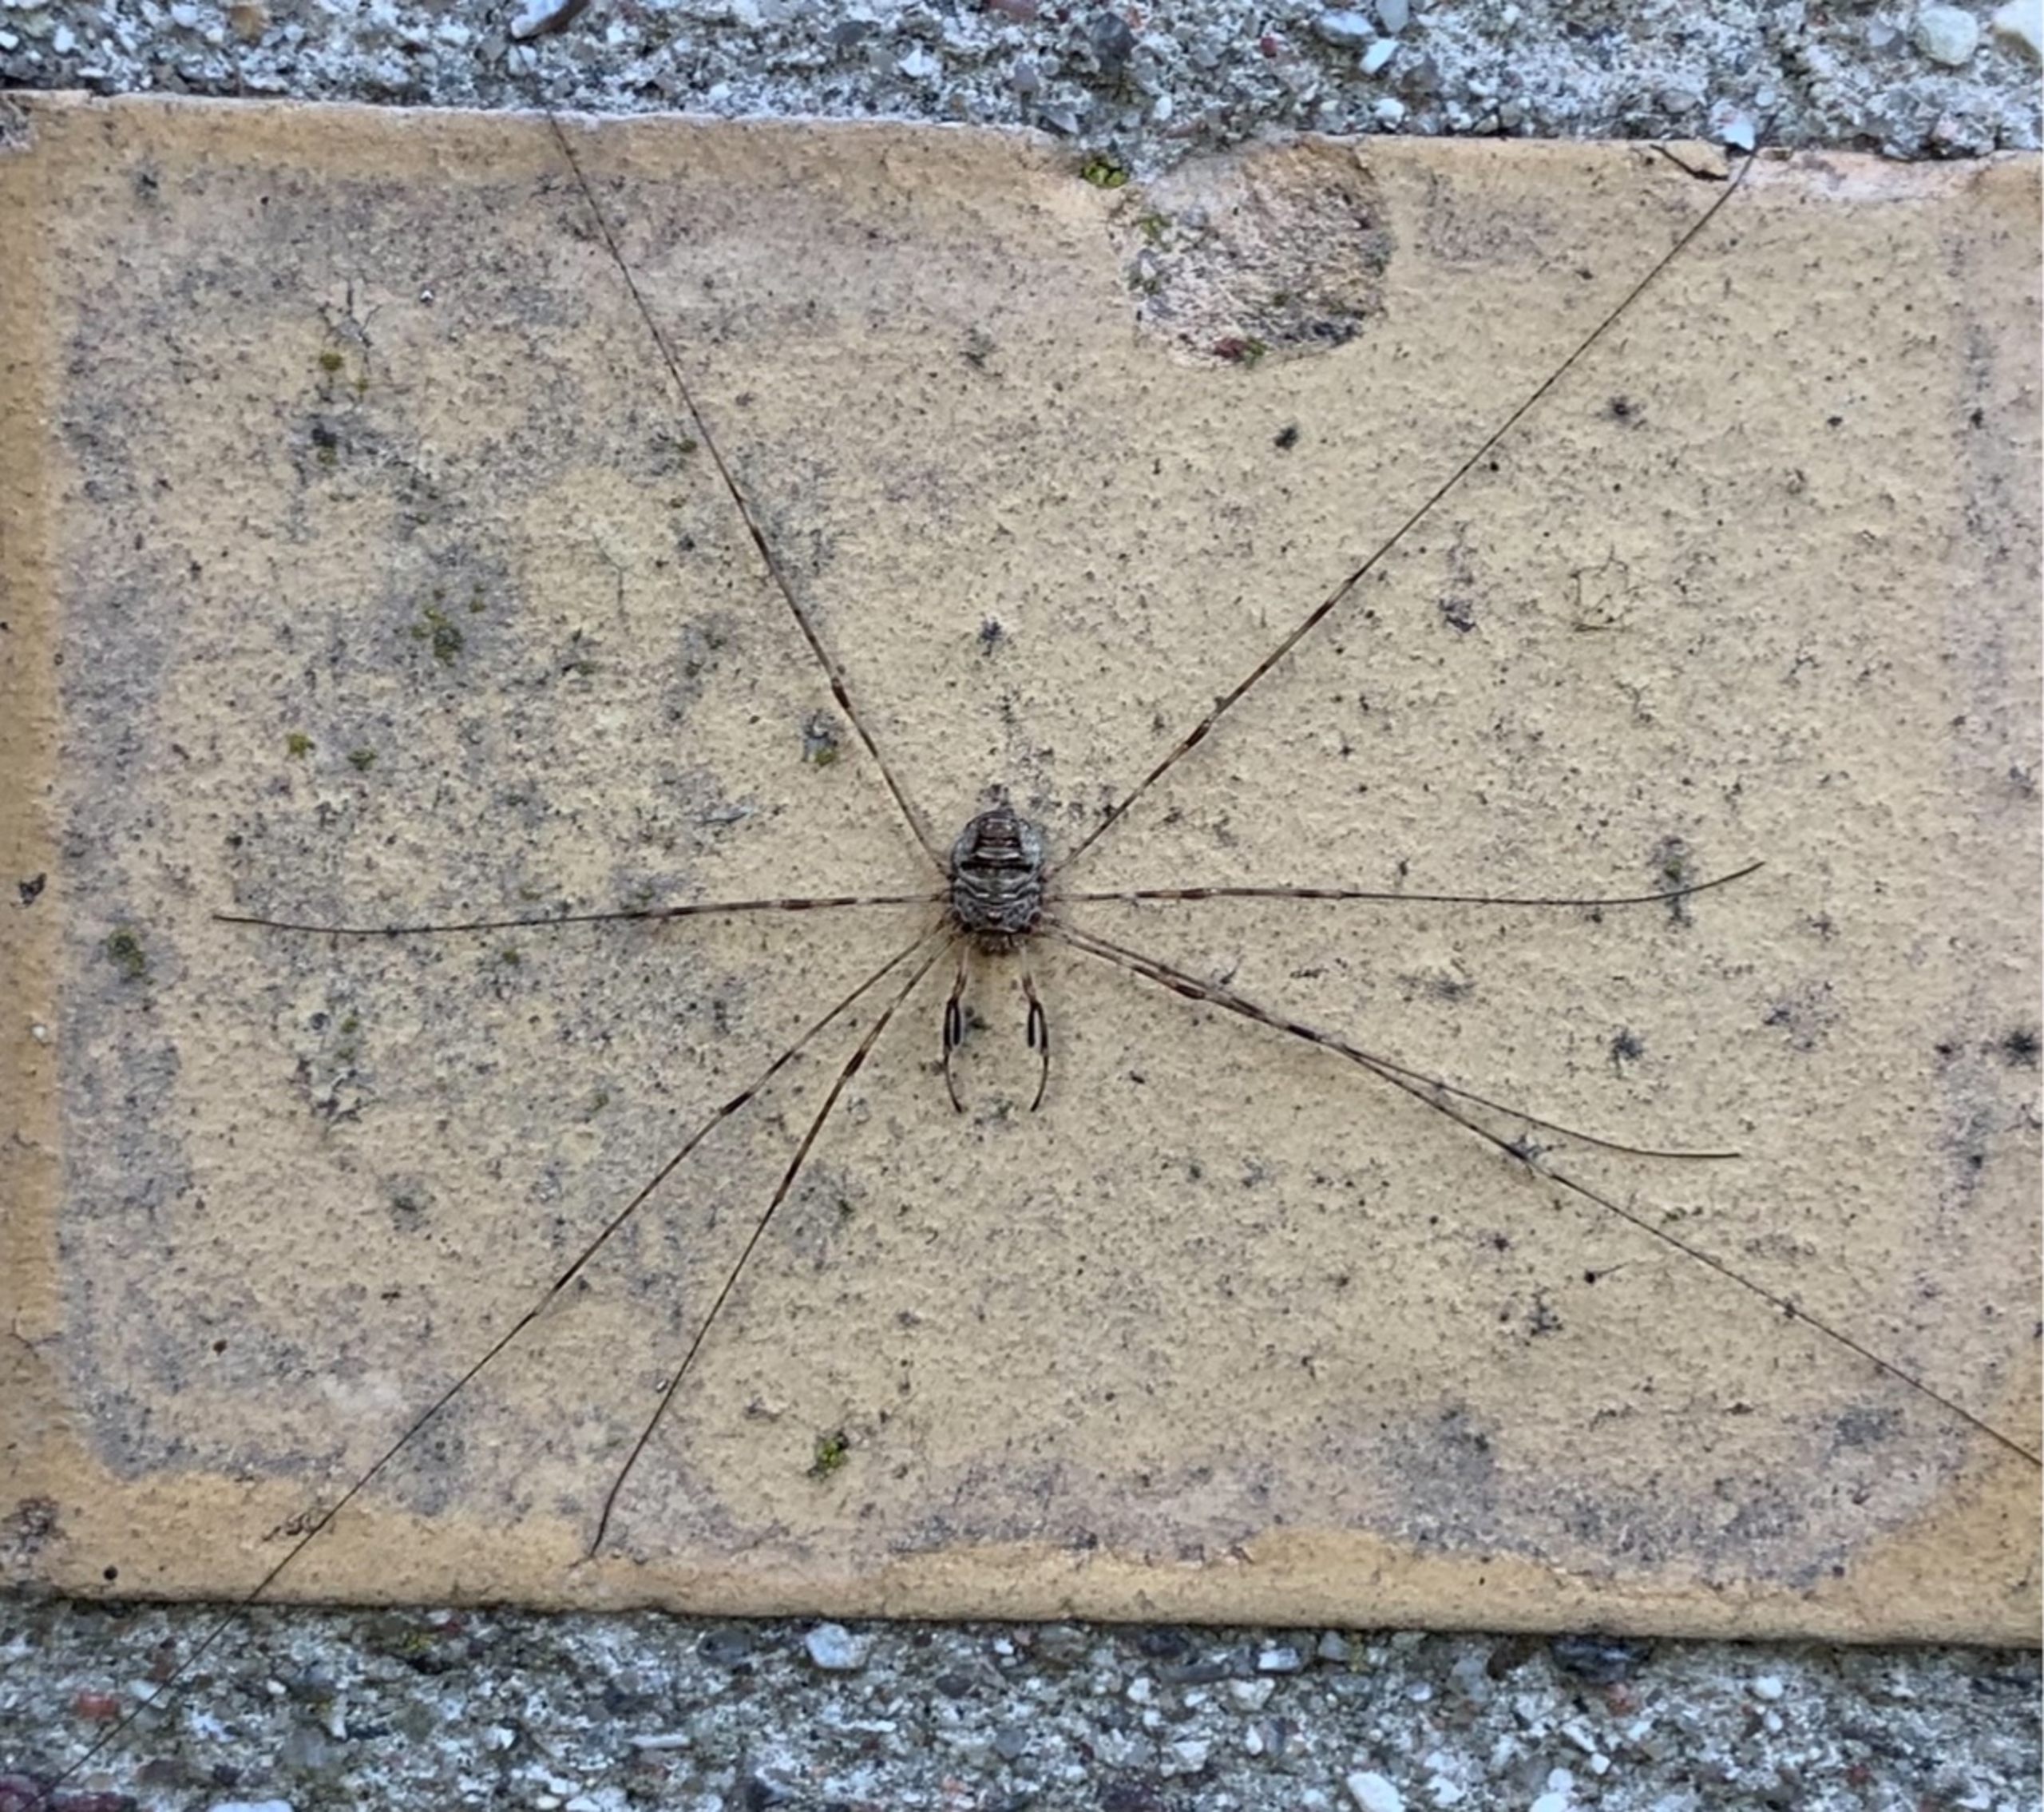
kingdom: Animalia
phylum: Arthropoda
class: Arachnida
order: Opiliones
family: Phalangiidae
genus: Dicranopalpus
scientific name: Dicranopalpus ramosus
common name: Gaffelmejer
